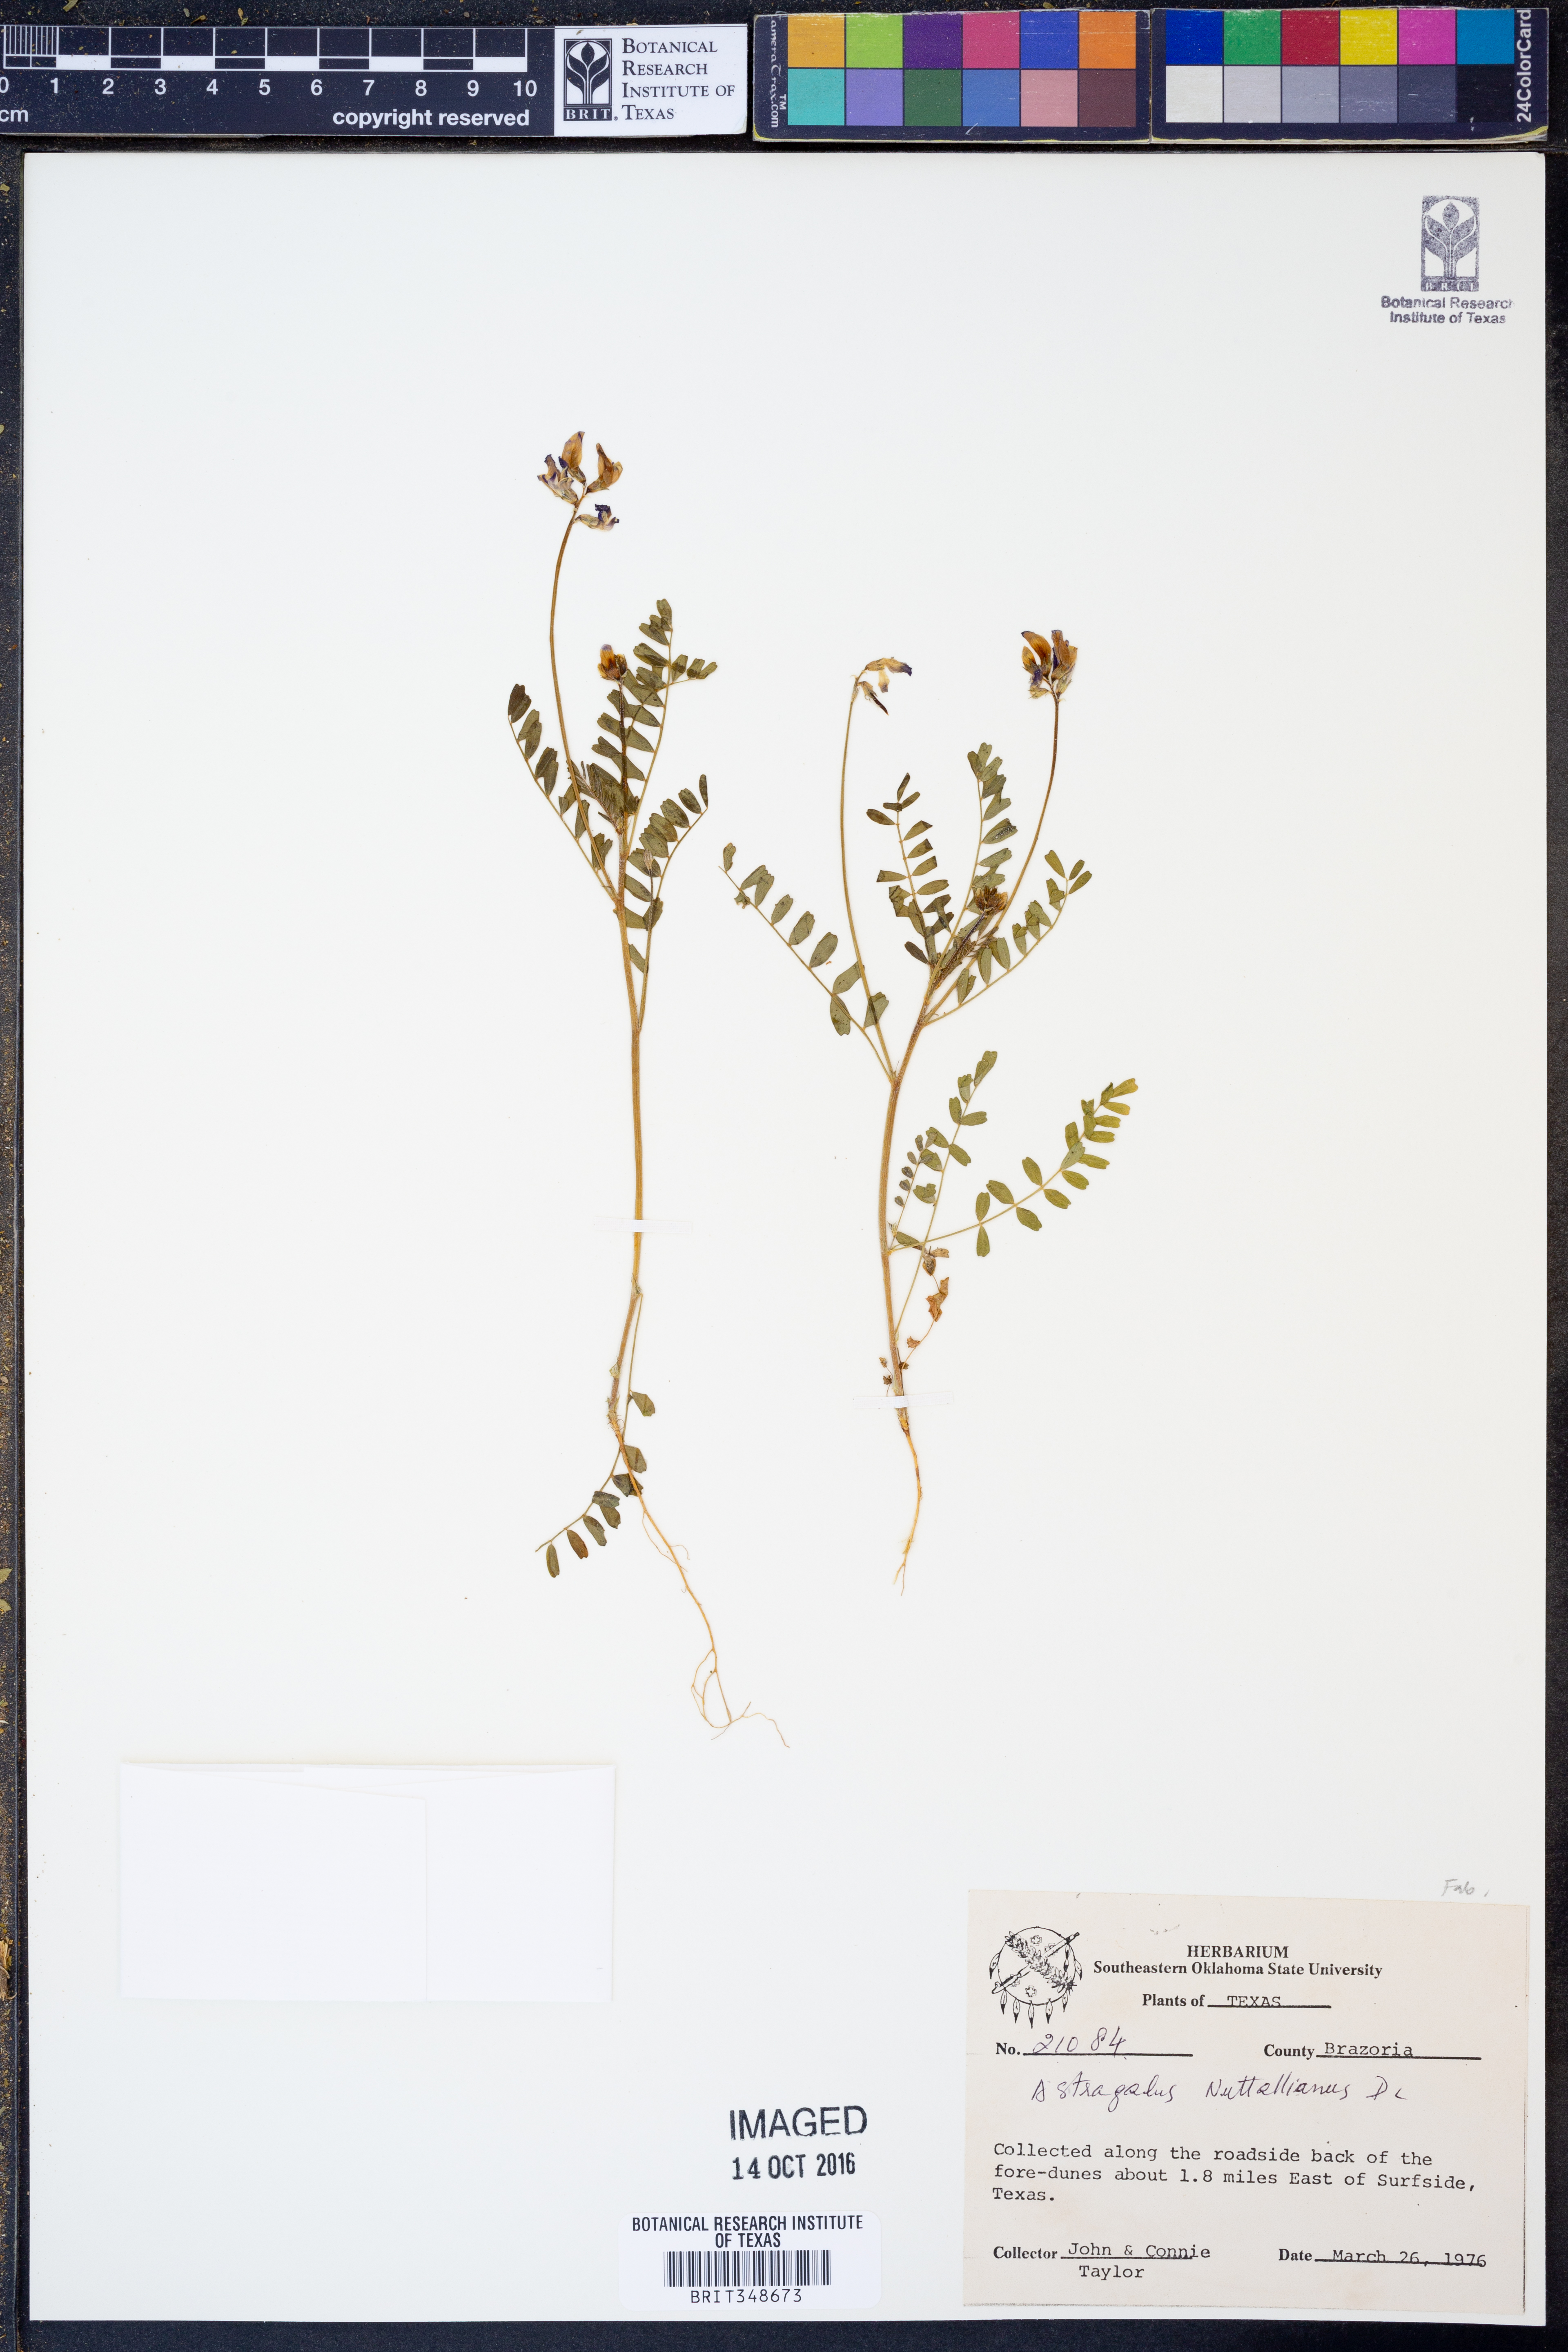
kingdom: Plantae
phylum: Tracheophyta
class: Magnoliopsida
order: Fabales
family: Fabaceae
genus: Astragalus
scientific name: Astragalus nuttallianus
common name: Smallflowered milkvetch
